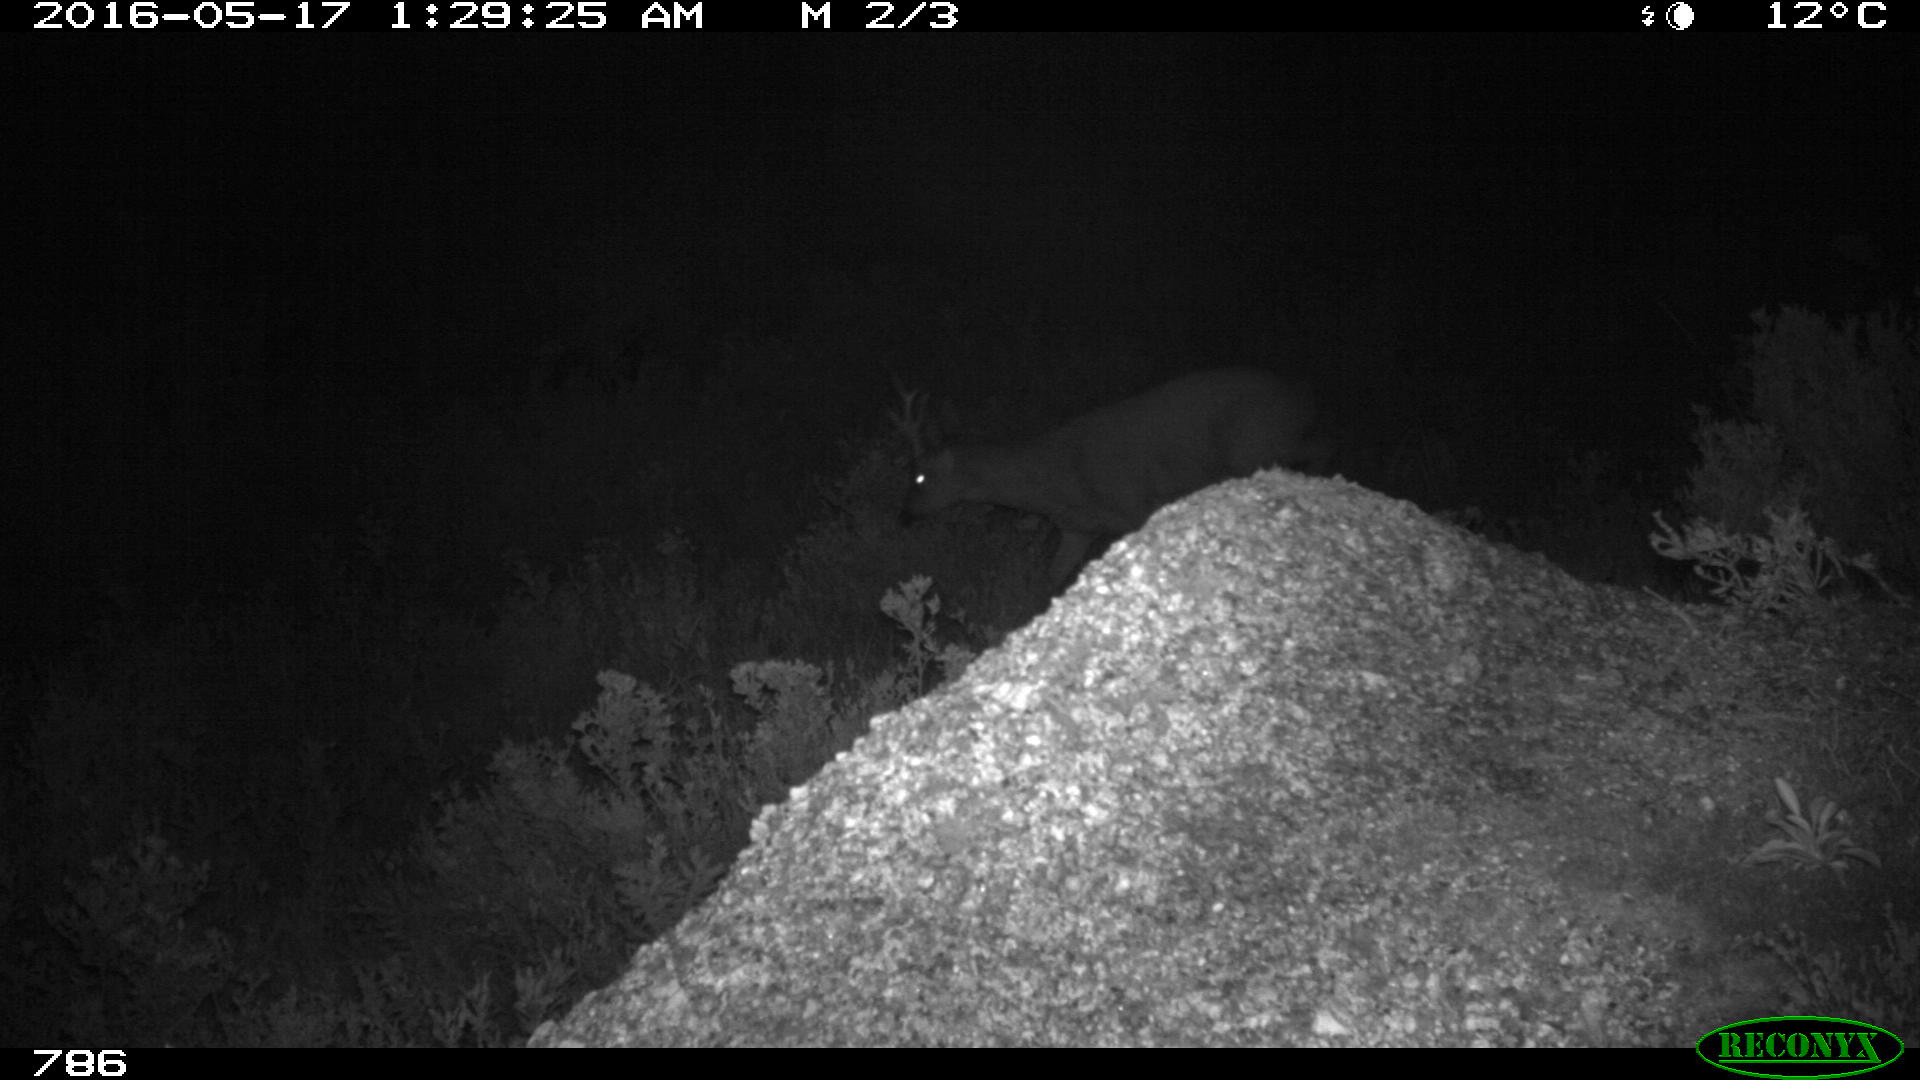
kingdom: Animalia
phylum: Chordata
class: Mammalia
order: Artiodactyla
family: Cervidae
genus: Capreolus
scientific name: Capreolus capreolus
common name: Western roe deer
